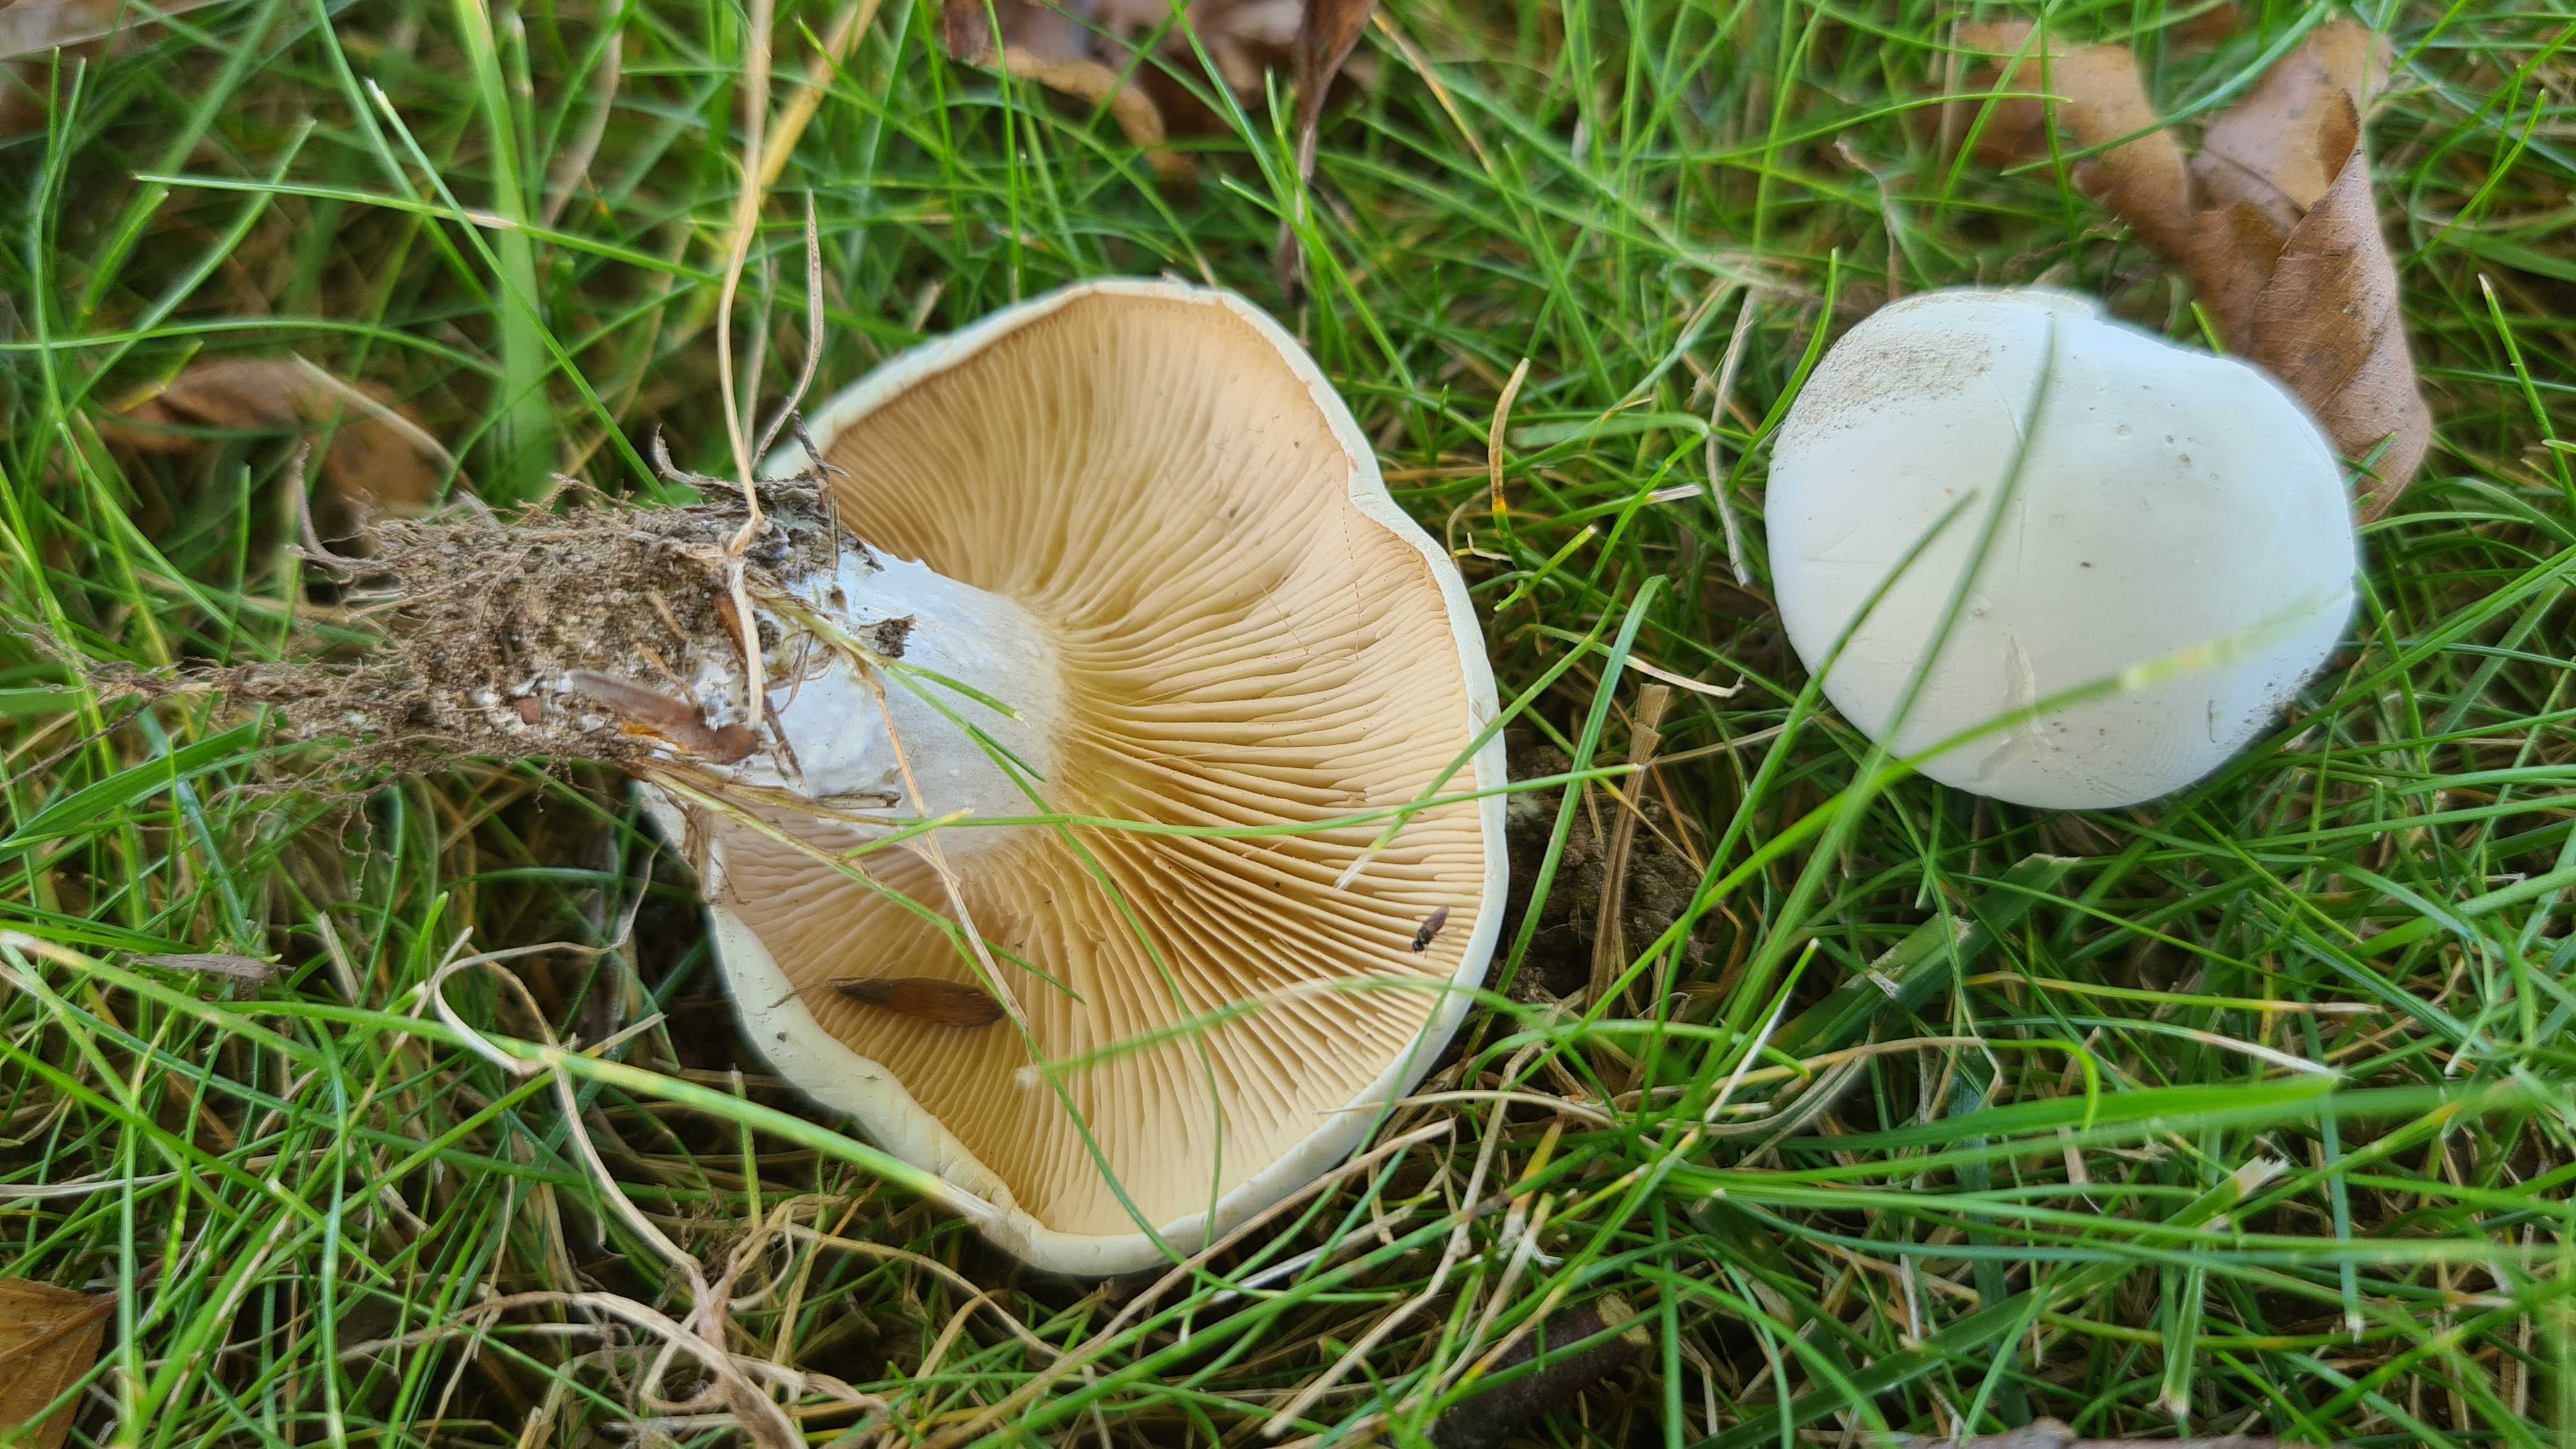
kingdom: Fungi
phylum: Basidiomycota
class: Agaricomycetes
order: Agaricales
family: Entolomataceae
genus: Clitopilus
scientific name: Clitopilus prunulus
